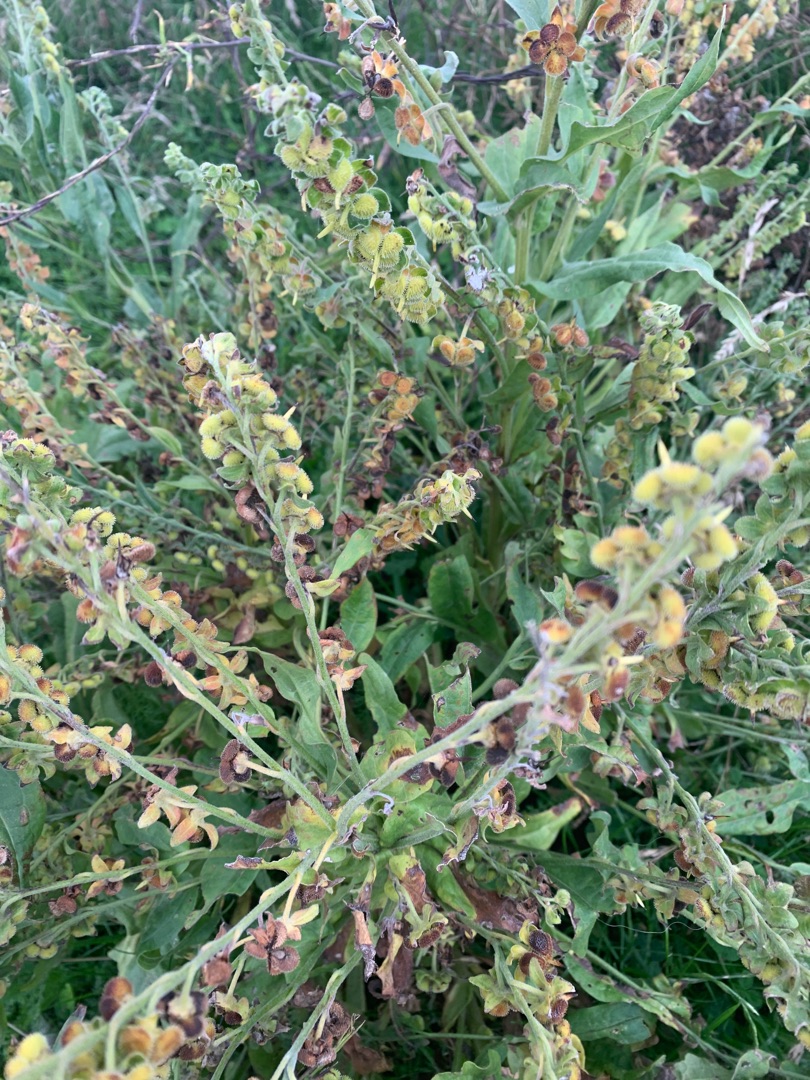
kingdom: Plantae
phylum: Tracheophyta
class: Magnoliopsida
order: Boraginales
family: Boraginaceae
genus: Cynoglossum
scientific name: Cynoglossum officinale
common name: Hundetunge
